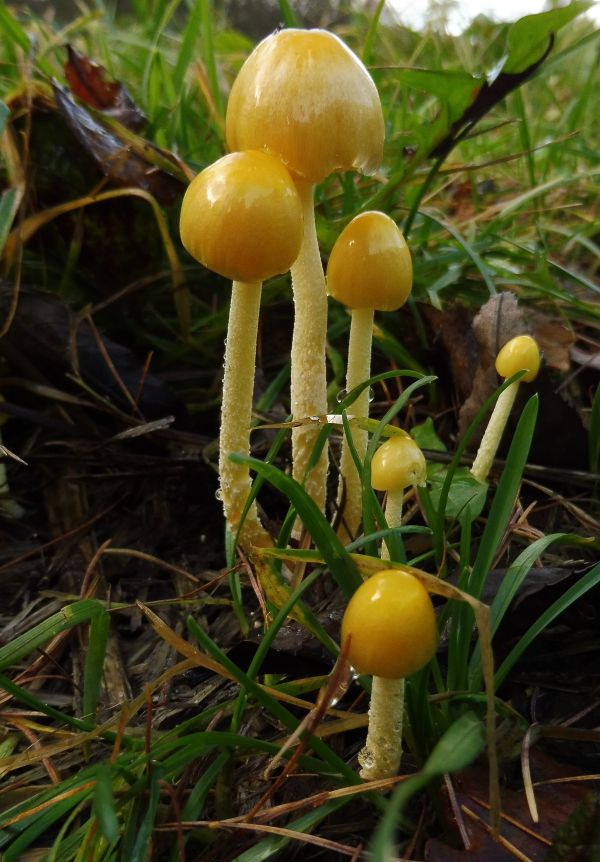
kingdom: Fungi
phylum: Basidiomycota
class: Agaricomycetes
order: Agaricales
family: Bolbitiaceae
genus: Bolbitius
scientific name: Bolbitius titubans
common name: almindelig gulhat
